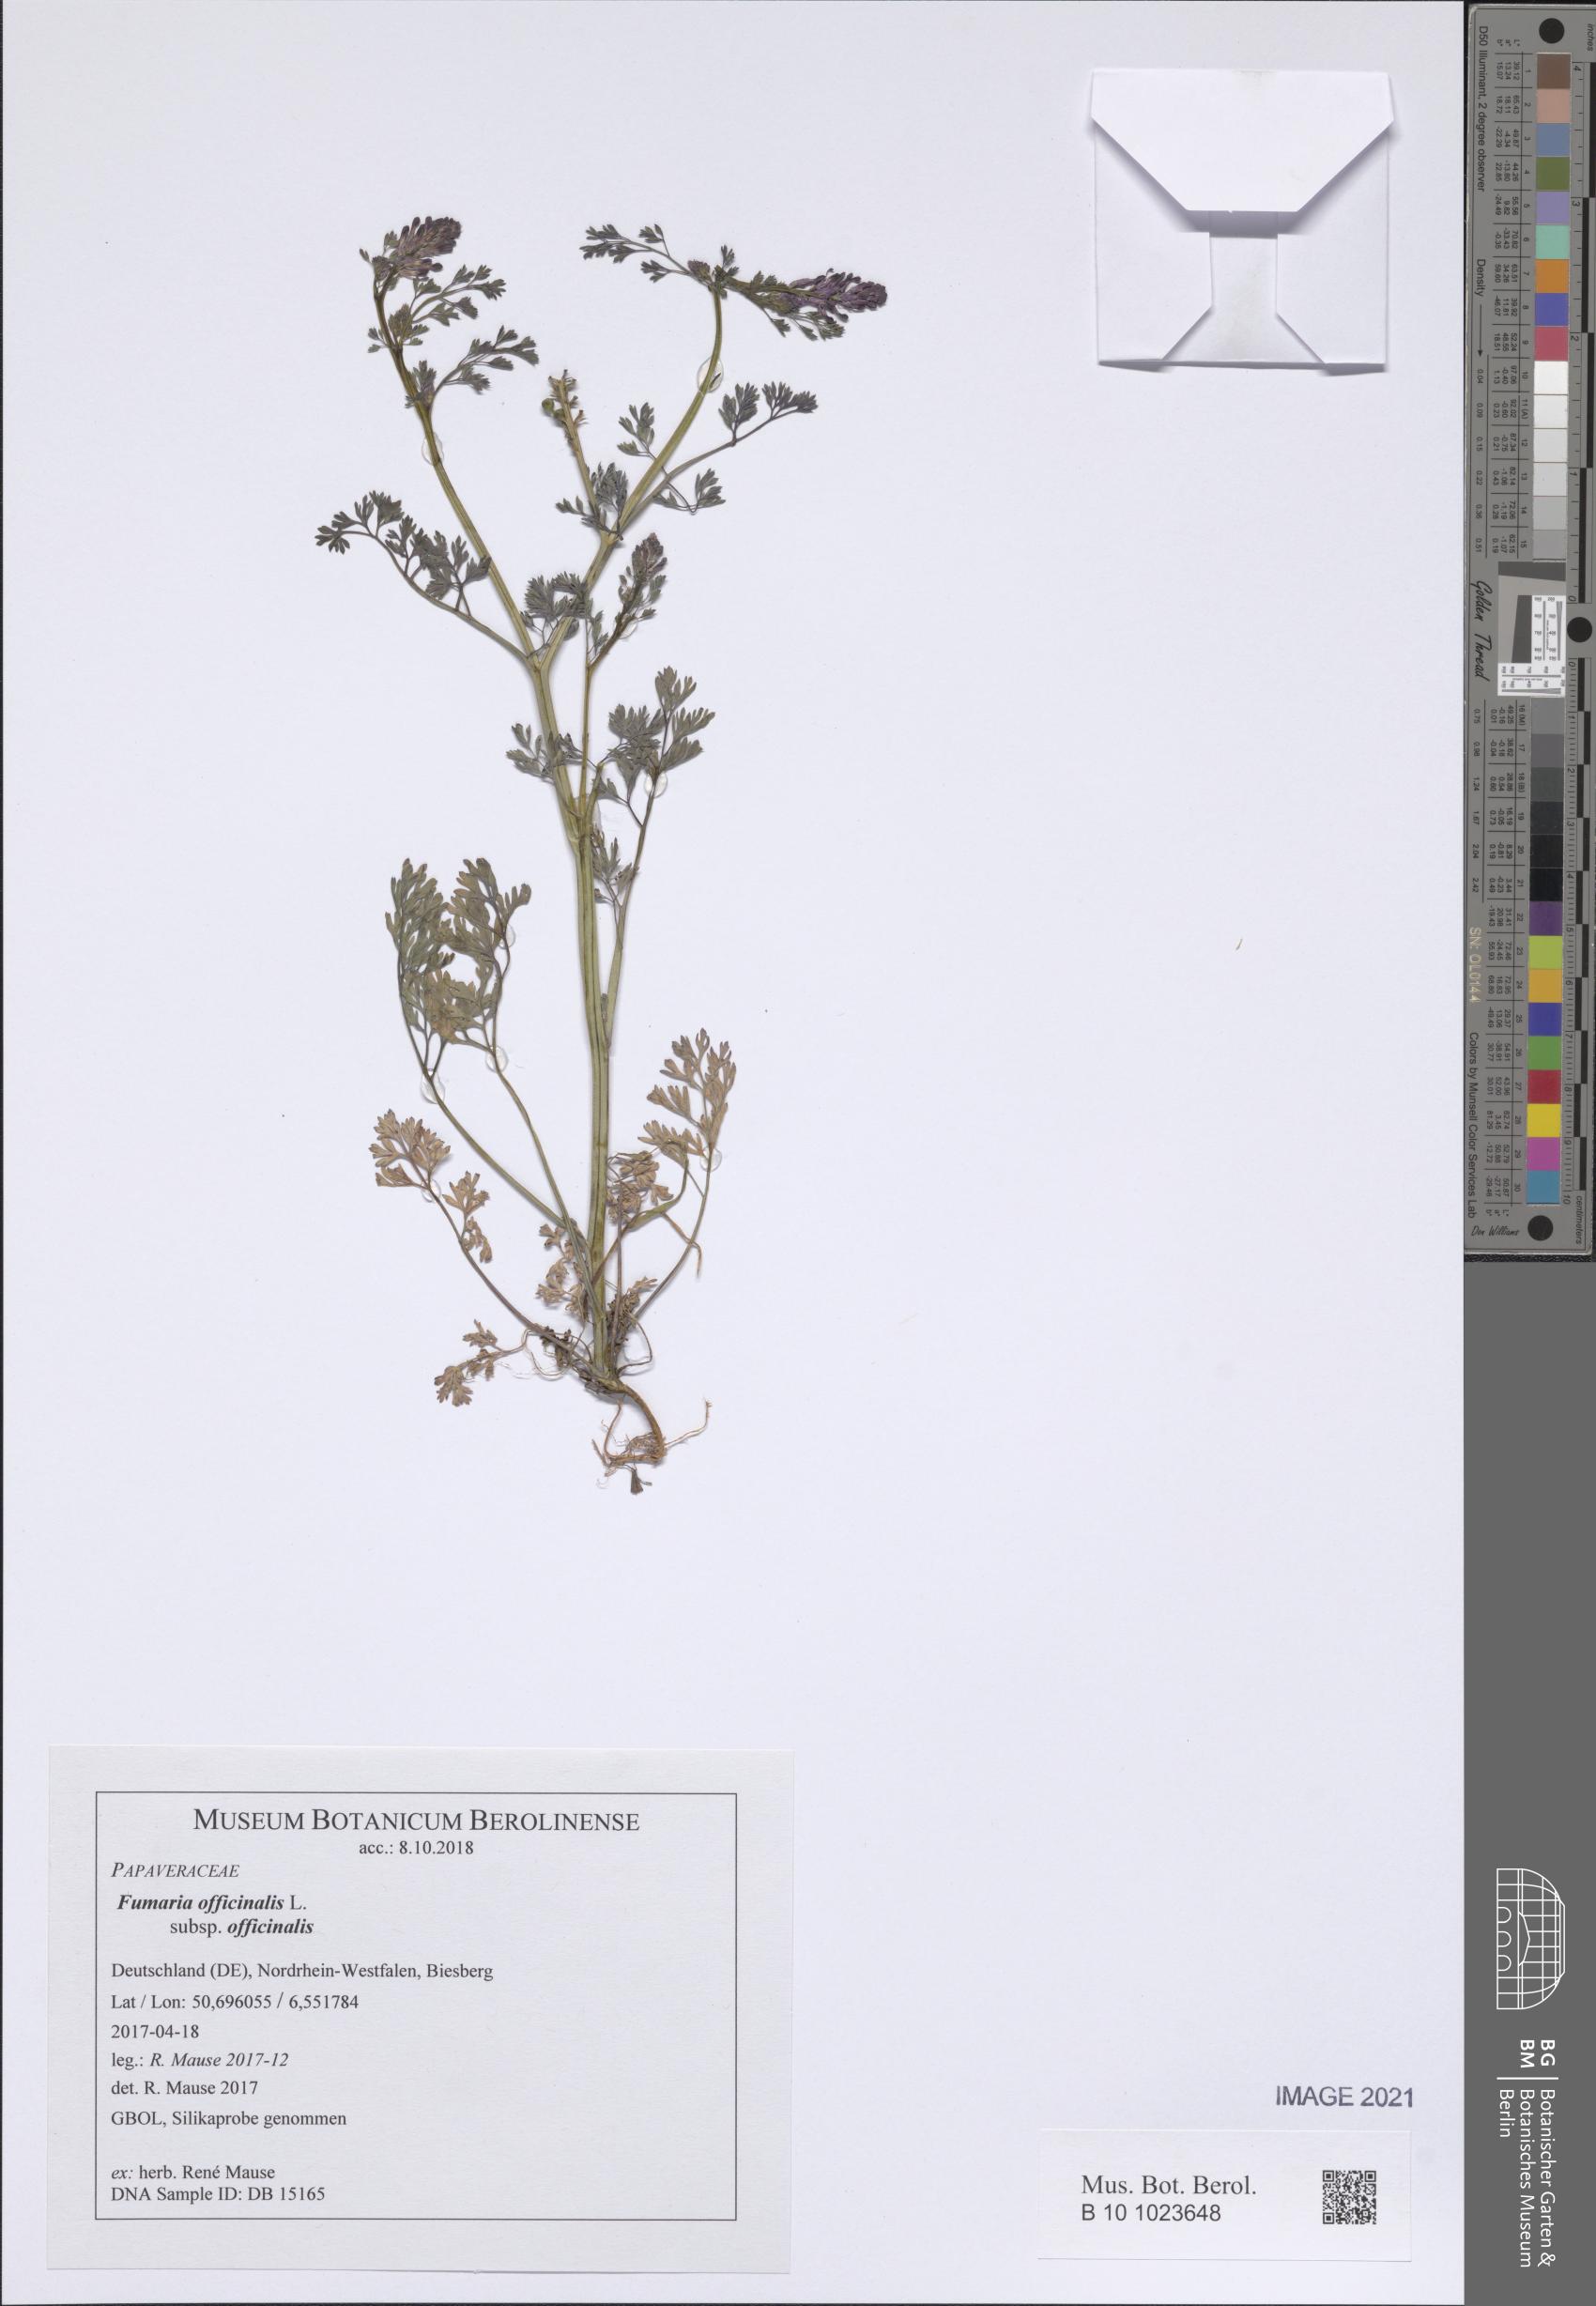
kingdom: Plantae
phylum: Tracheophyta
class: Magnoliopsida
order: Ranunculales
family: Papaveraceae
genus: Fumaria
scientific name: Fumaria officinalis
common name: Common fumitory
